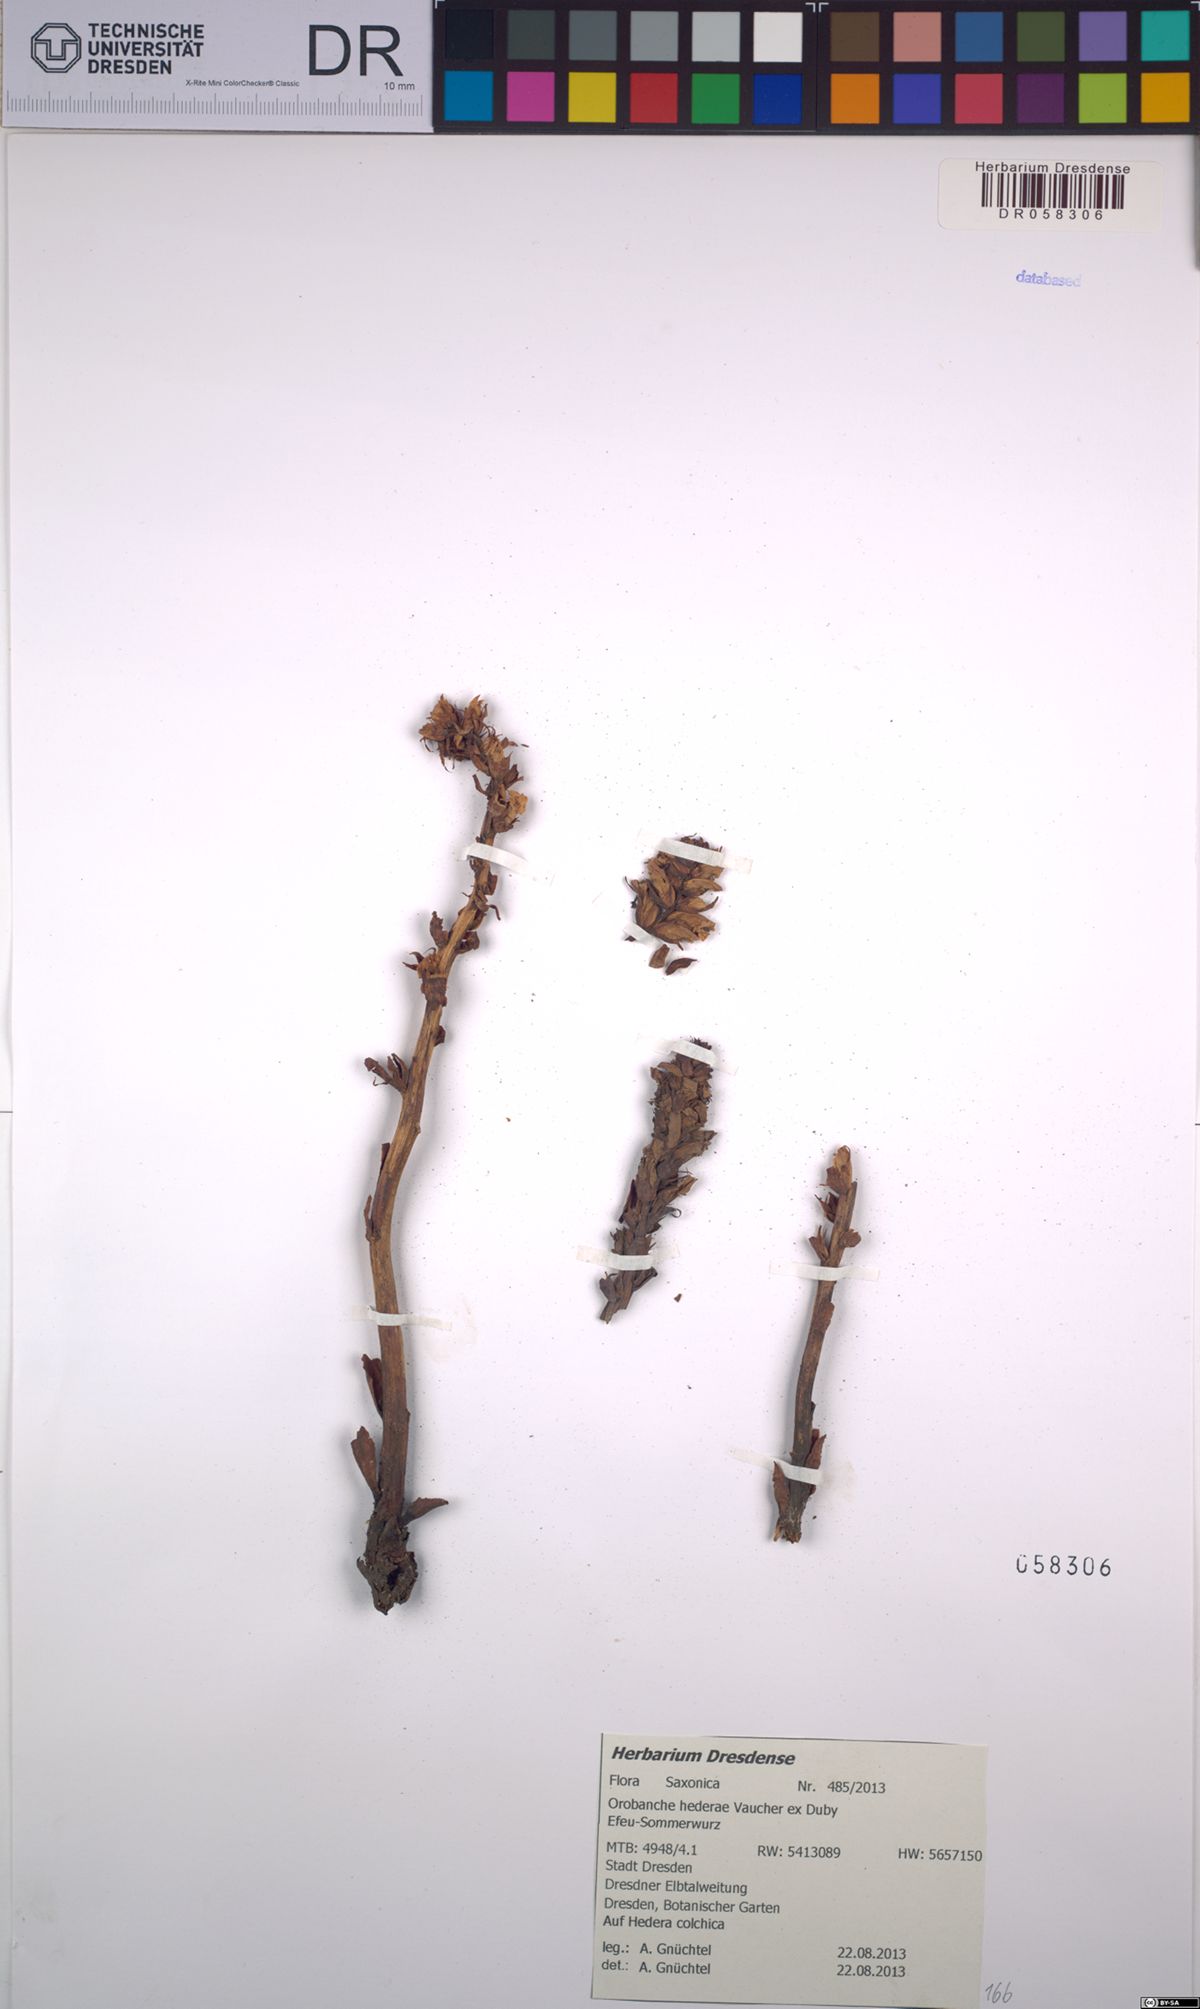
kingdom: Plantae
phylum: Tracheophyta
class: Magnoliopsida
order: Lamiales
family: Orobanchaceae
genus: Orobanche
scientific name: Orobanche hederae
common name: Ivy broomrape
